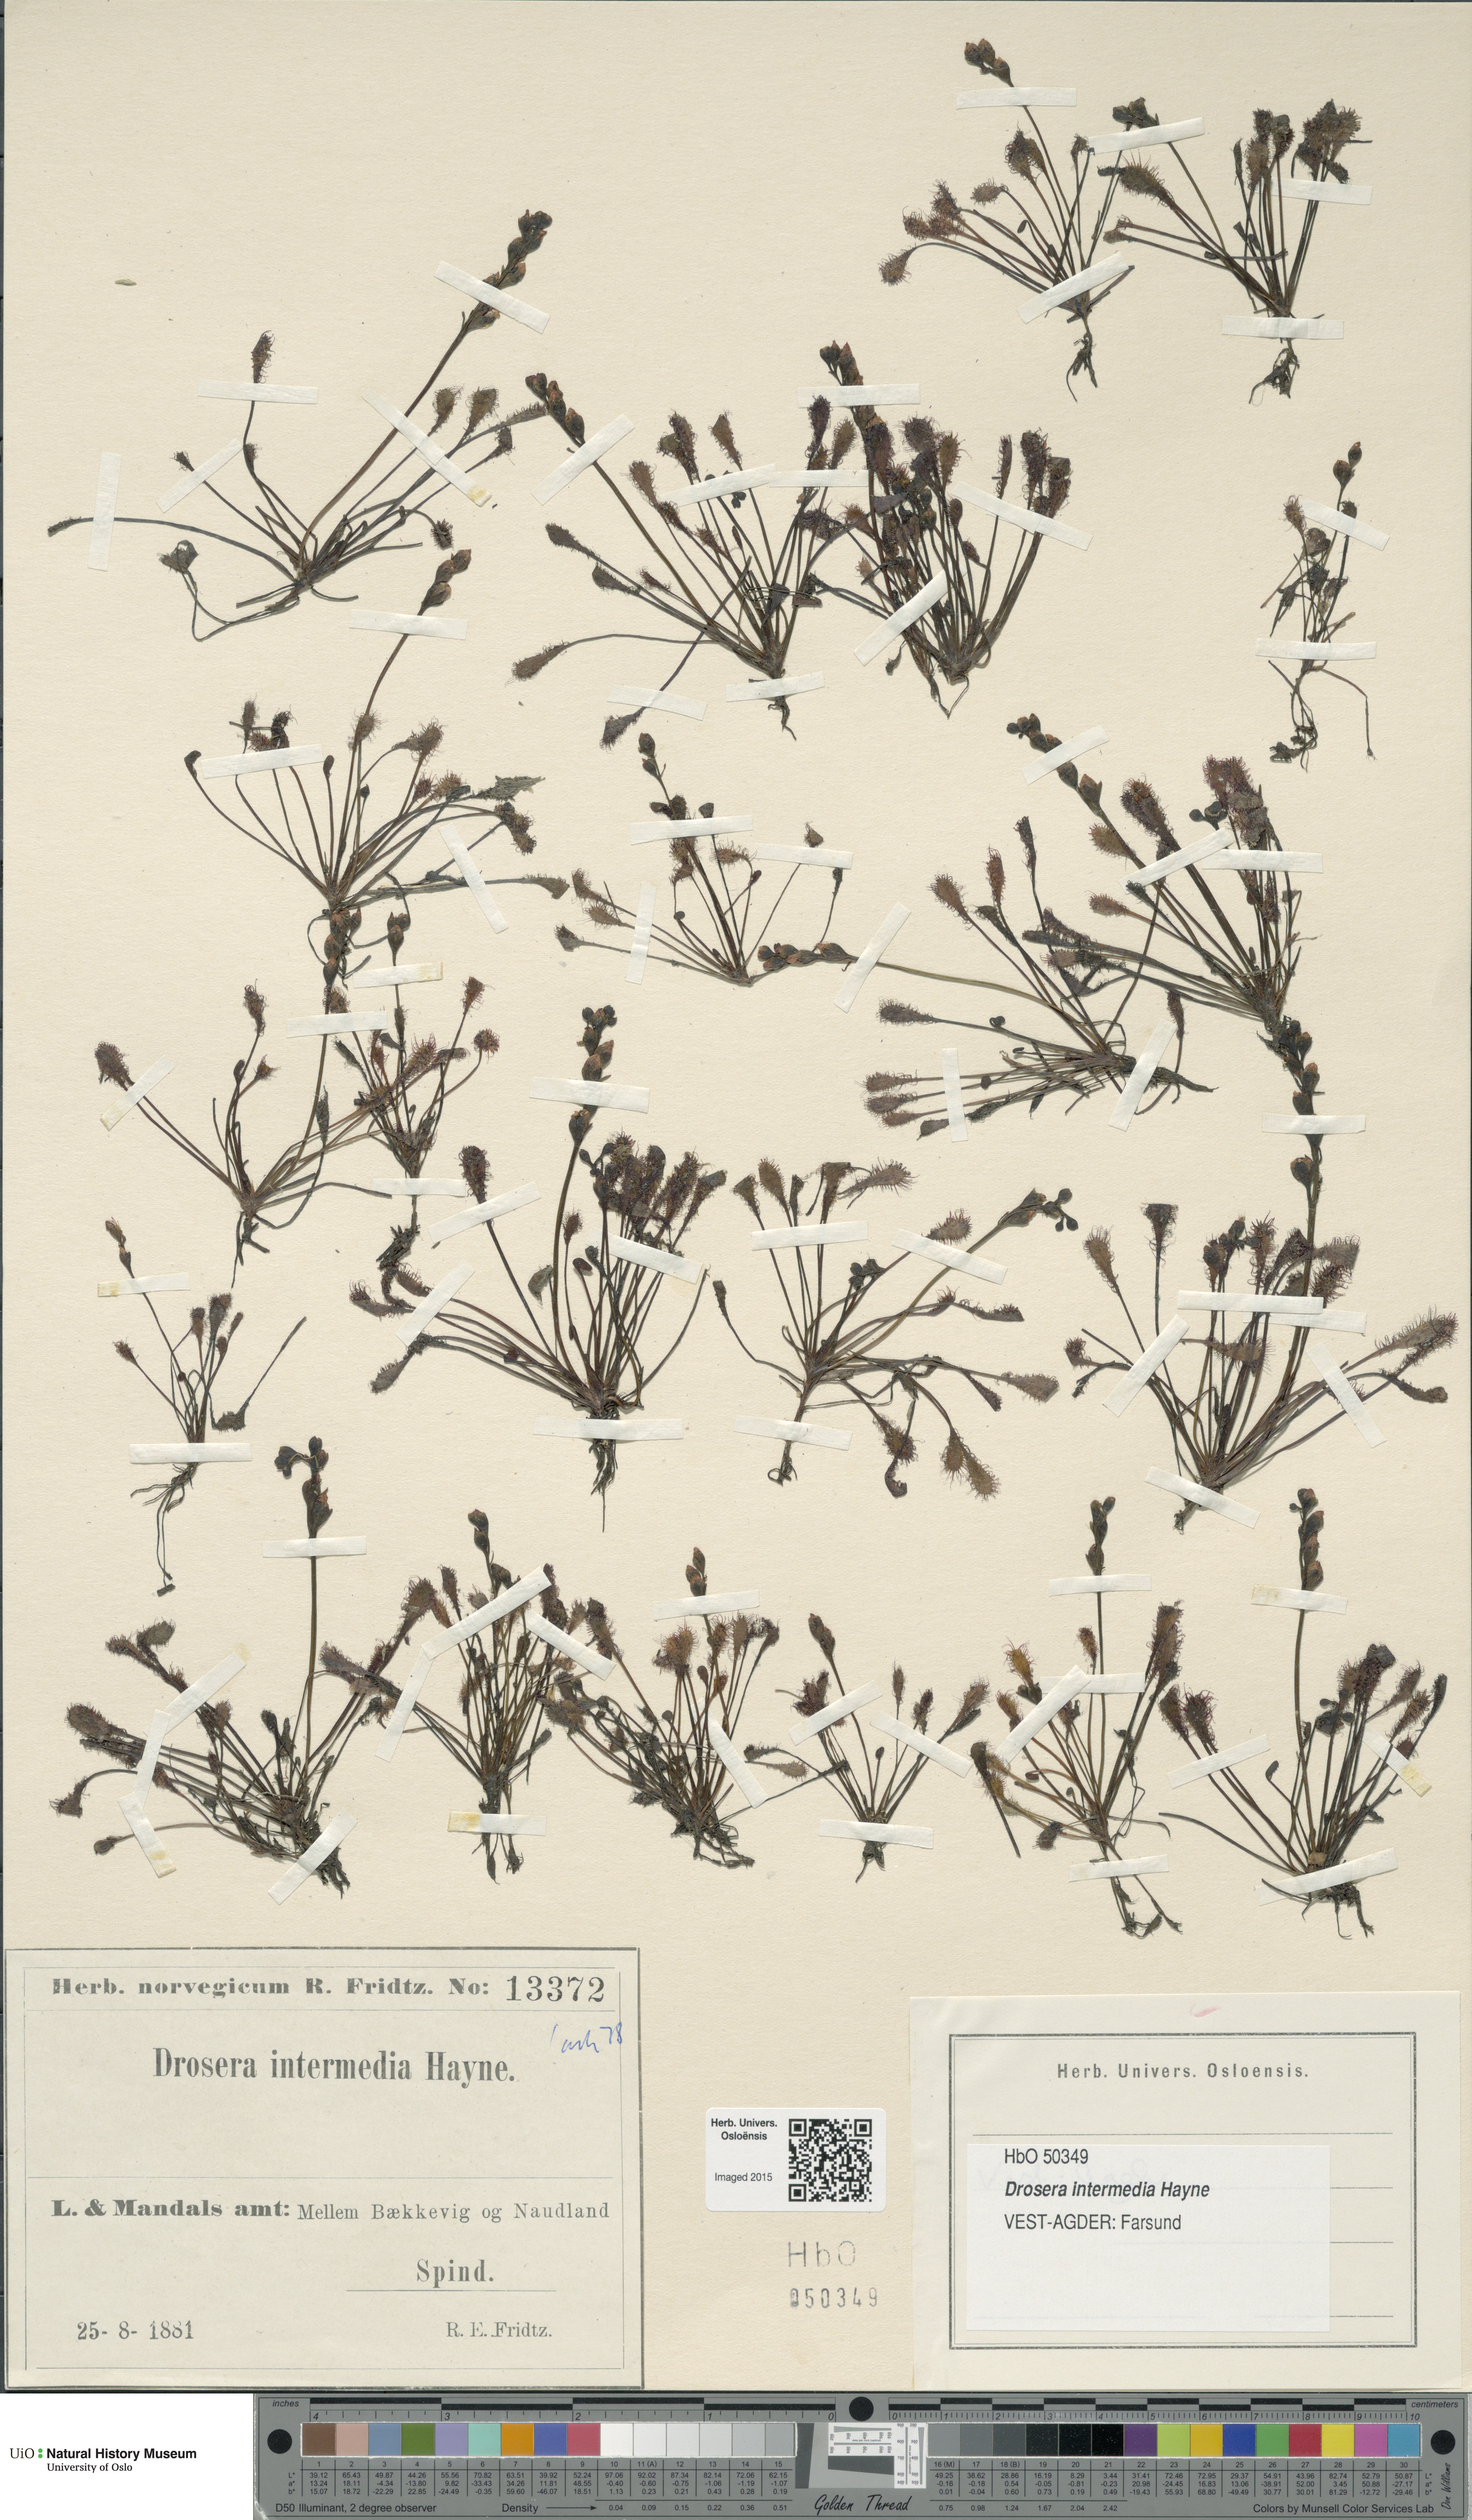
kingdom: Plantae
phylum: Tracheophyta
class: Magnoliopsida
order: Caryophyllales
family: Droseraceae
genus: Drosera
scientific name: Drosera intermedia
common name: Oblong-leaved sundew
